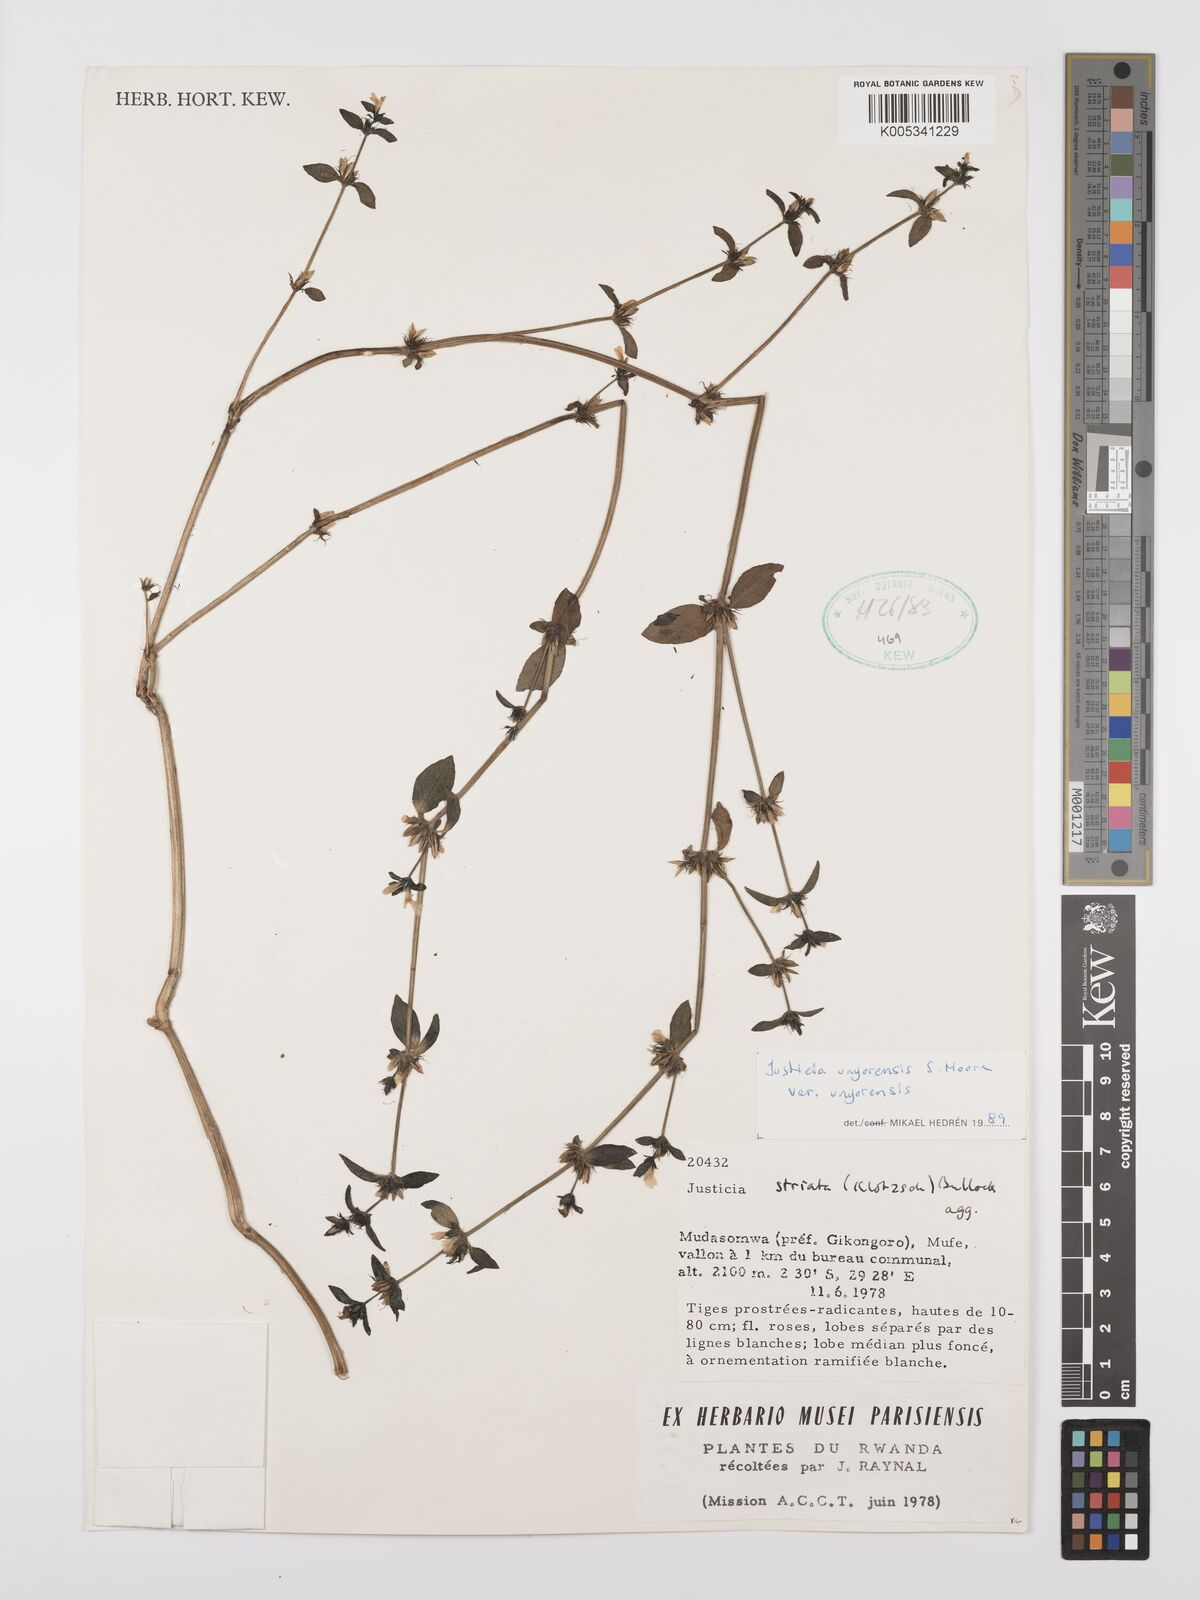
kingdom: Plantae
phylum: Tracheophyta
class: Magnoliopsida
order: Lamiales
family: Acanthaceae
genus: Justicia
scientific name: Justicia unyorensis
